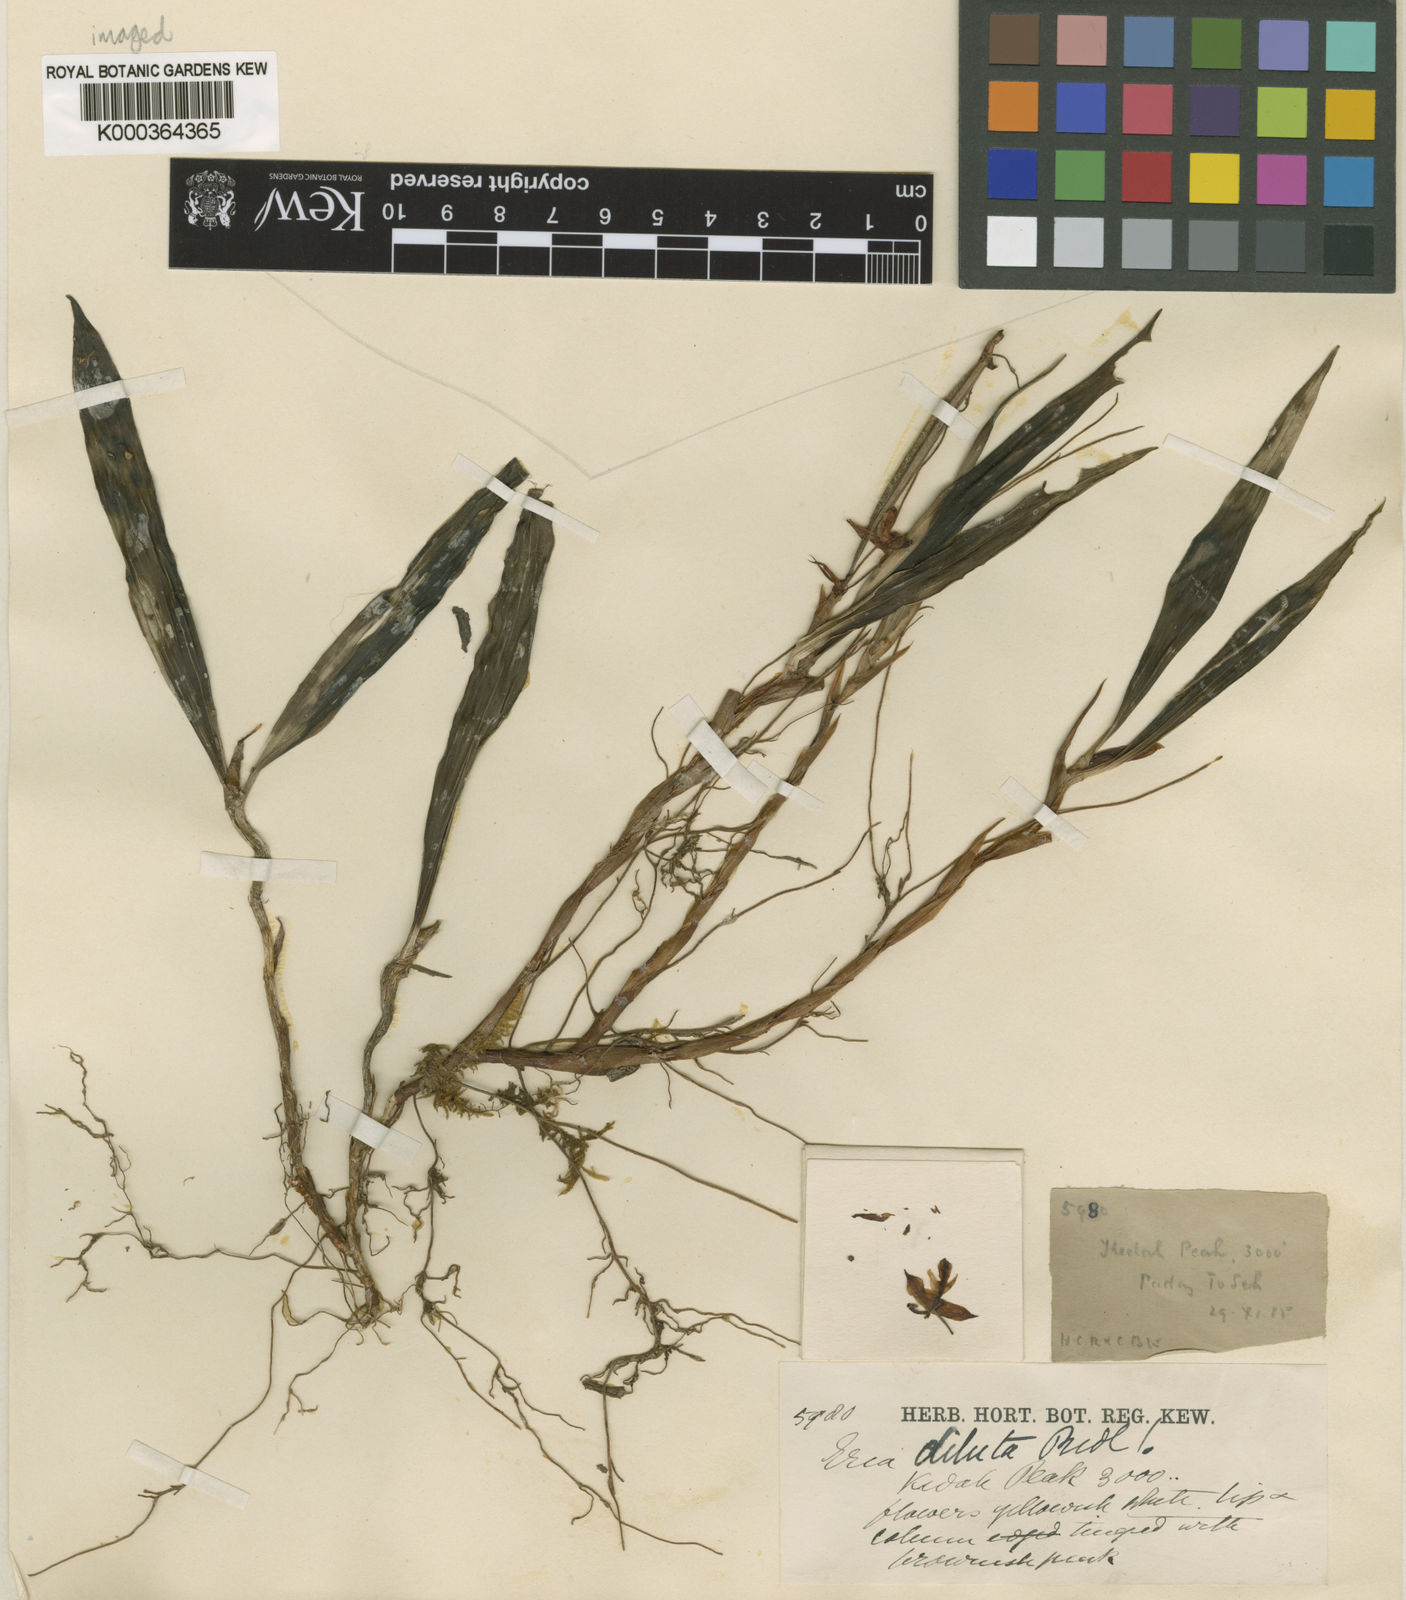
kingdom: Plantae
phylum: Tracheophyta
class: Liliopsida
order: Asparagales
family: Orchidaceae
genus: Cylindrolobus
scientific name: Cylindrolobus dilutus
